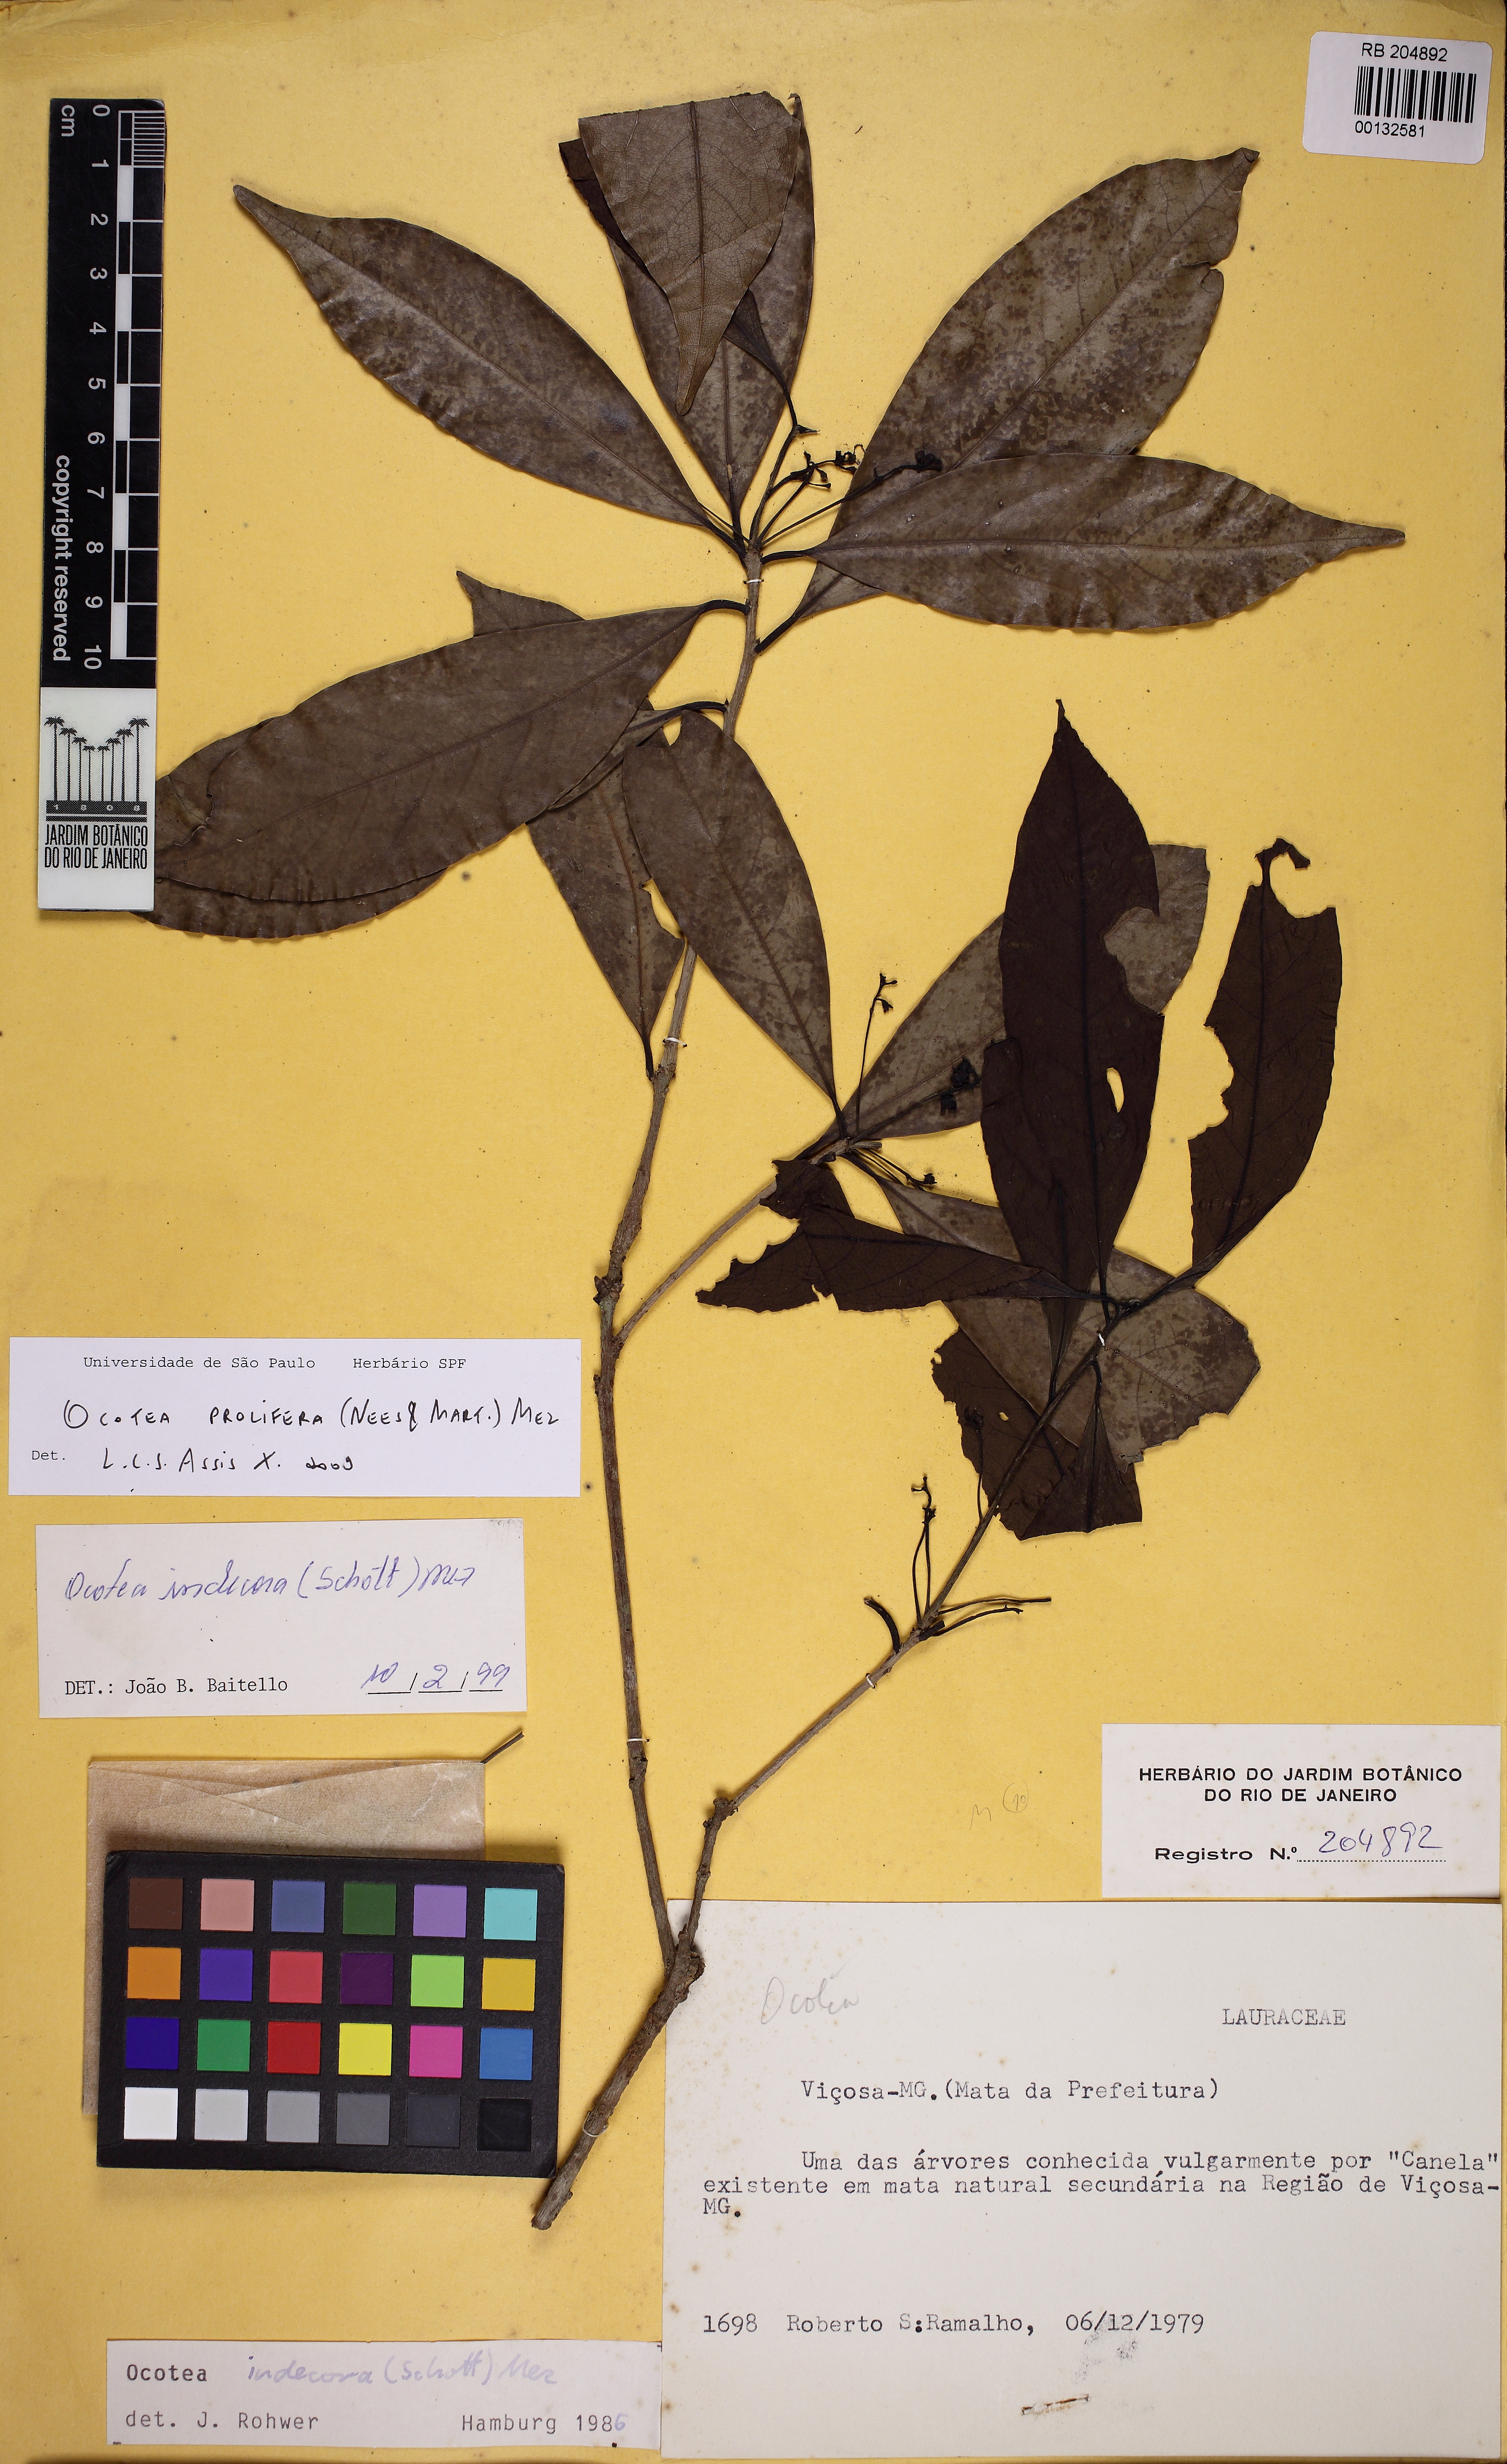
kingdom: Plantae
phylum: Tracheophyta
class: Magnoliopsida
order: Laurales
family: Lauraceae
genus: Mespilodaphne
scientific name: Mespilodaphne prolifera
